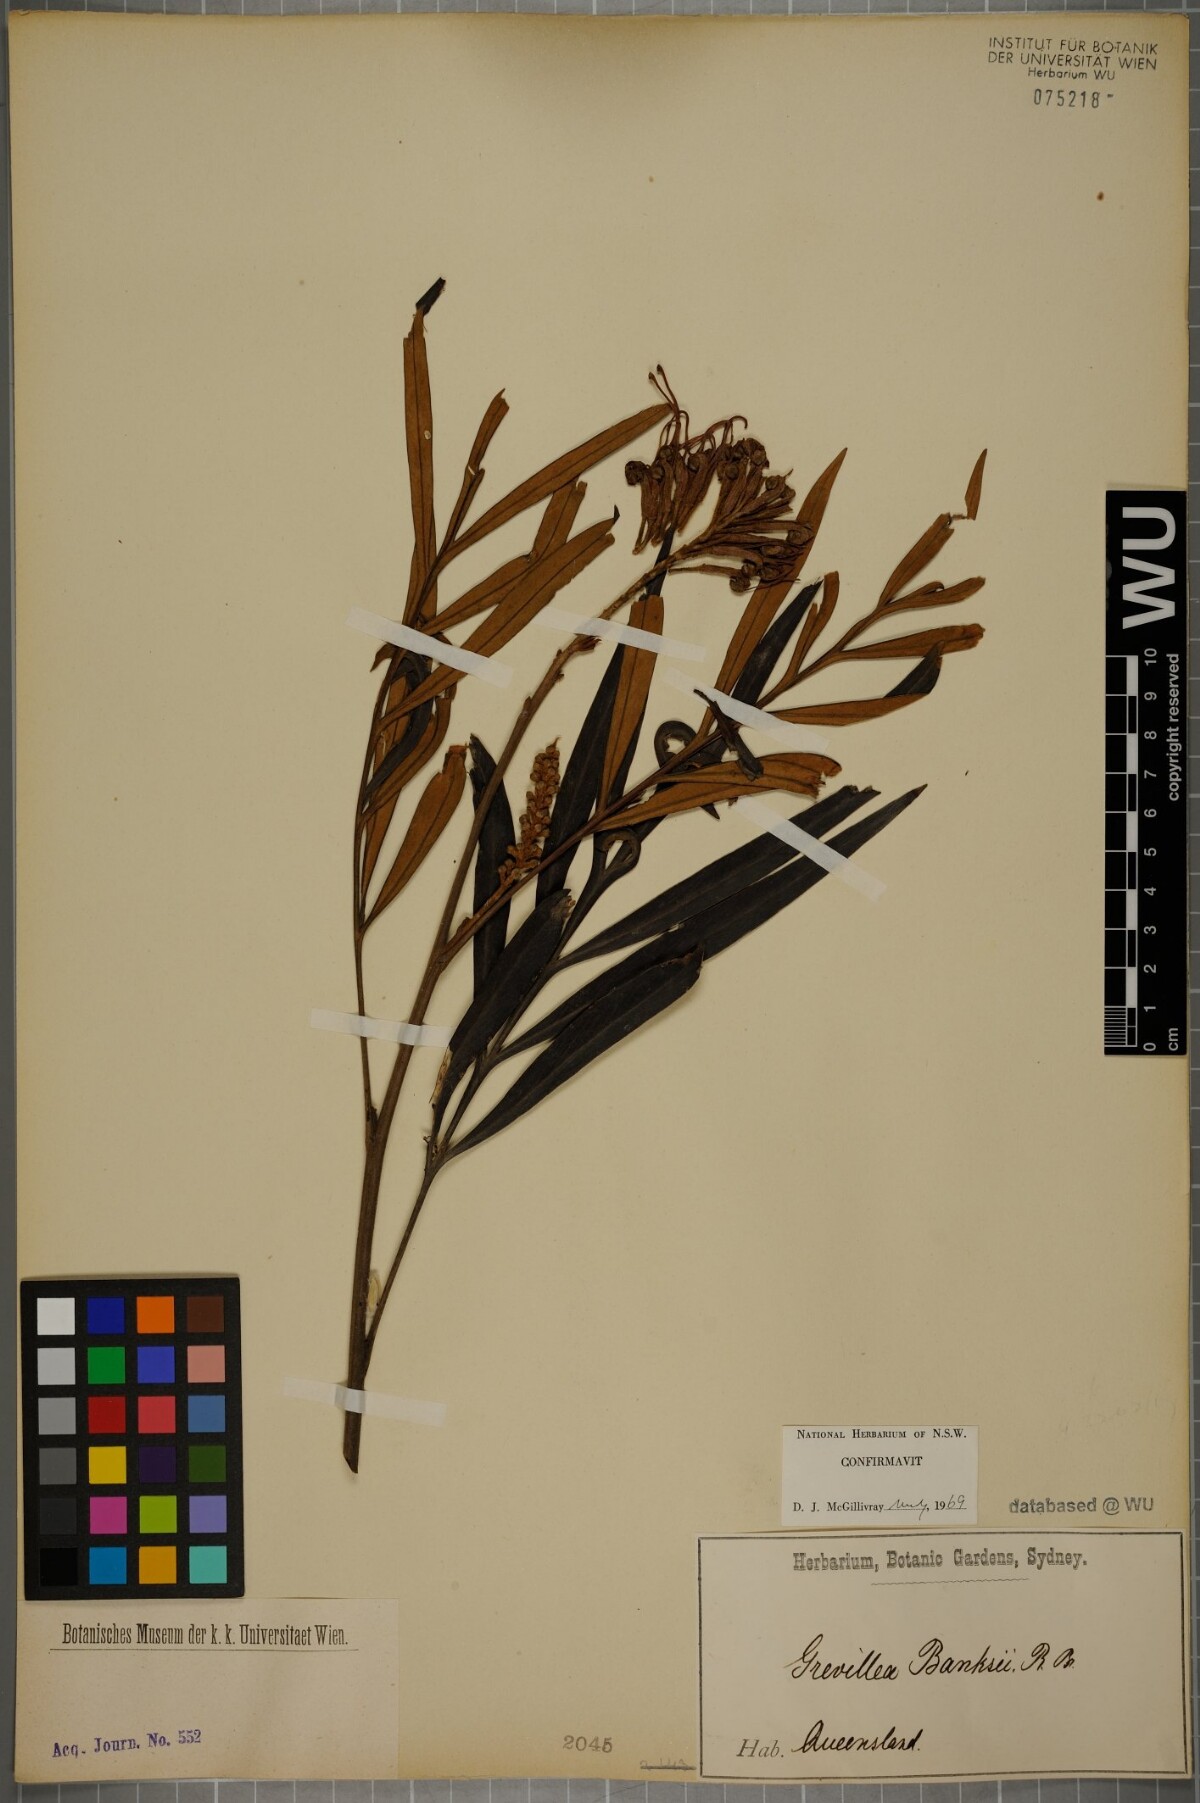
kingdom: Plantae
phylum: Tracheophyta
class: Magnoliopsida
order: Proteales
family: Proteaceae
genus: Grevillea
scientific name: Grevillea banksii
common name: Kahili flower
